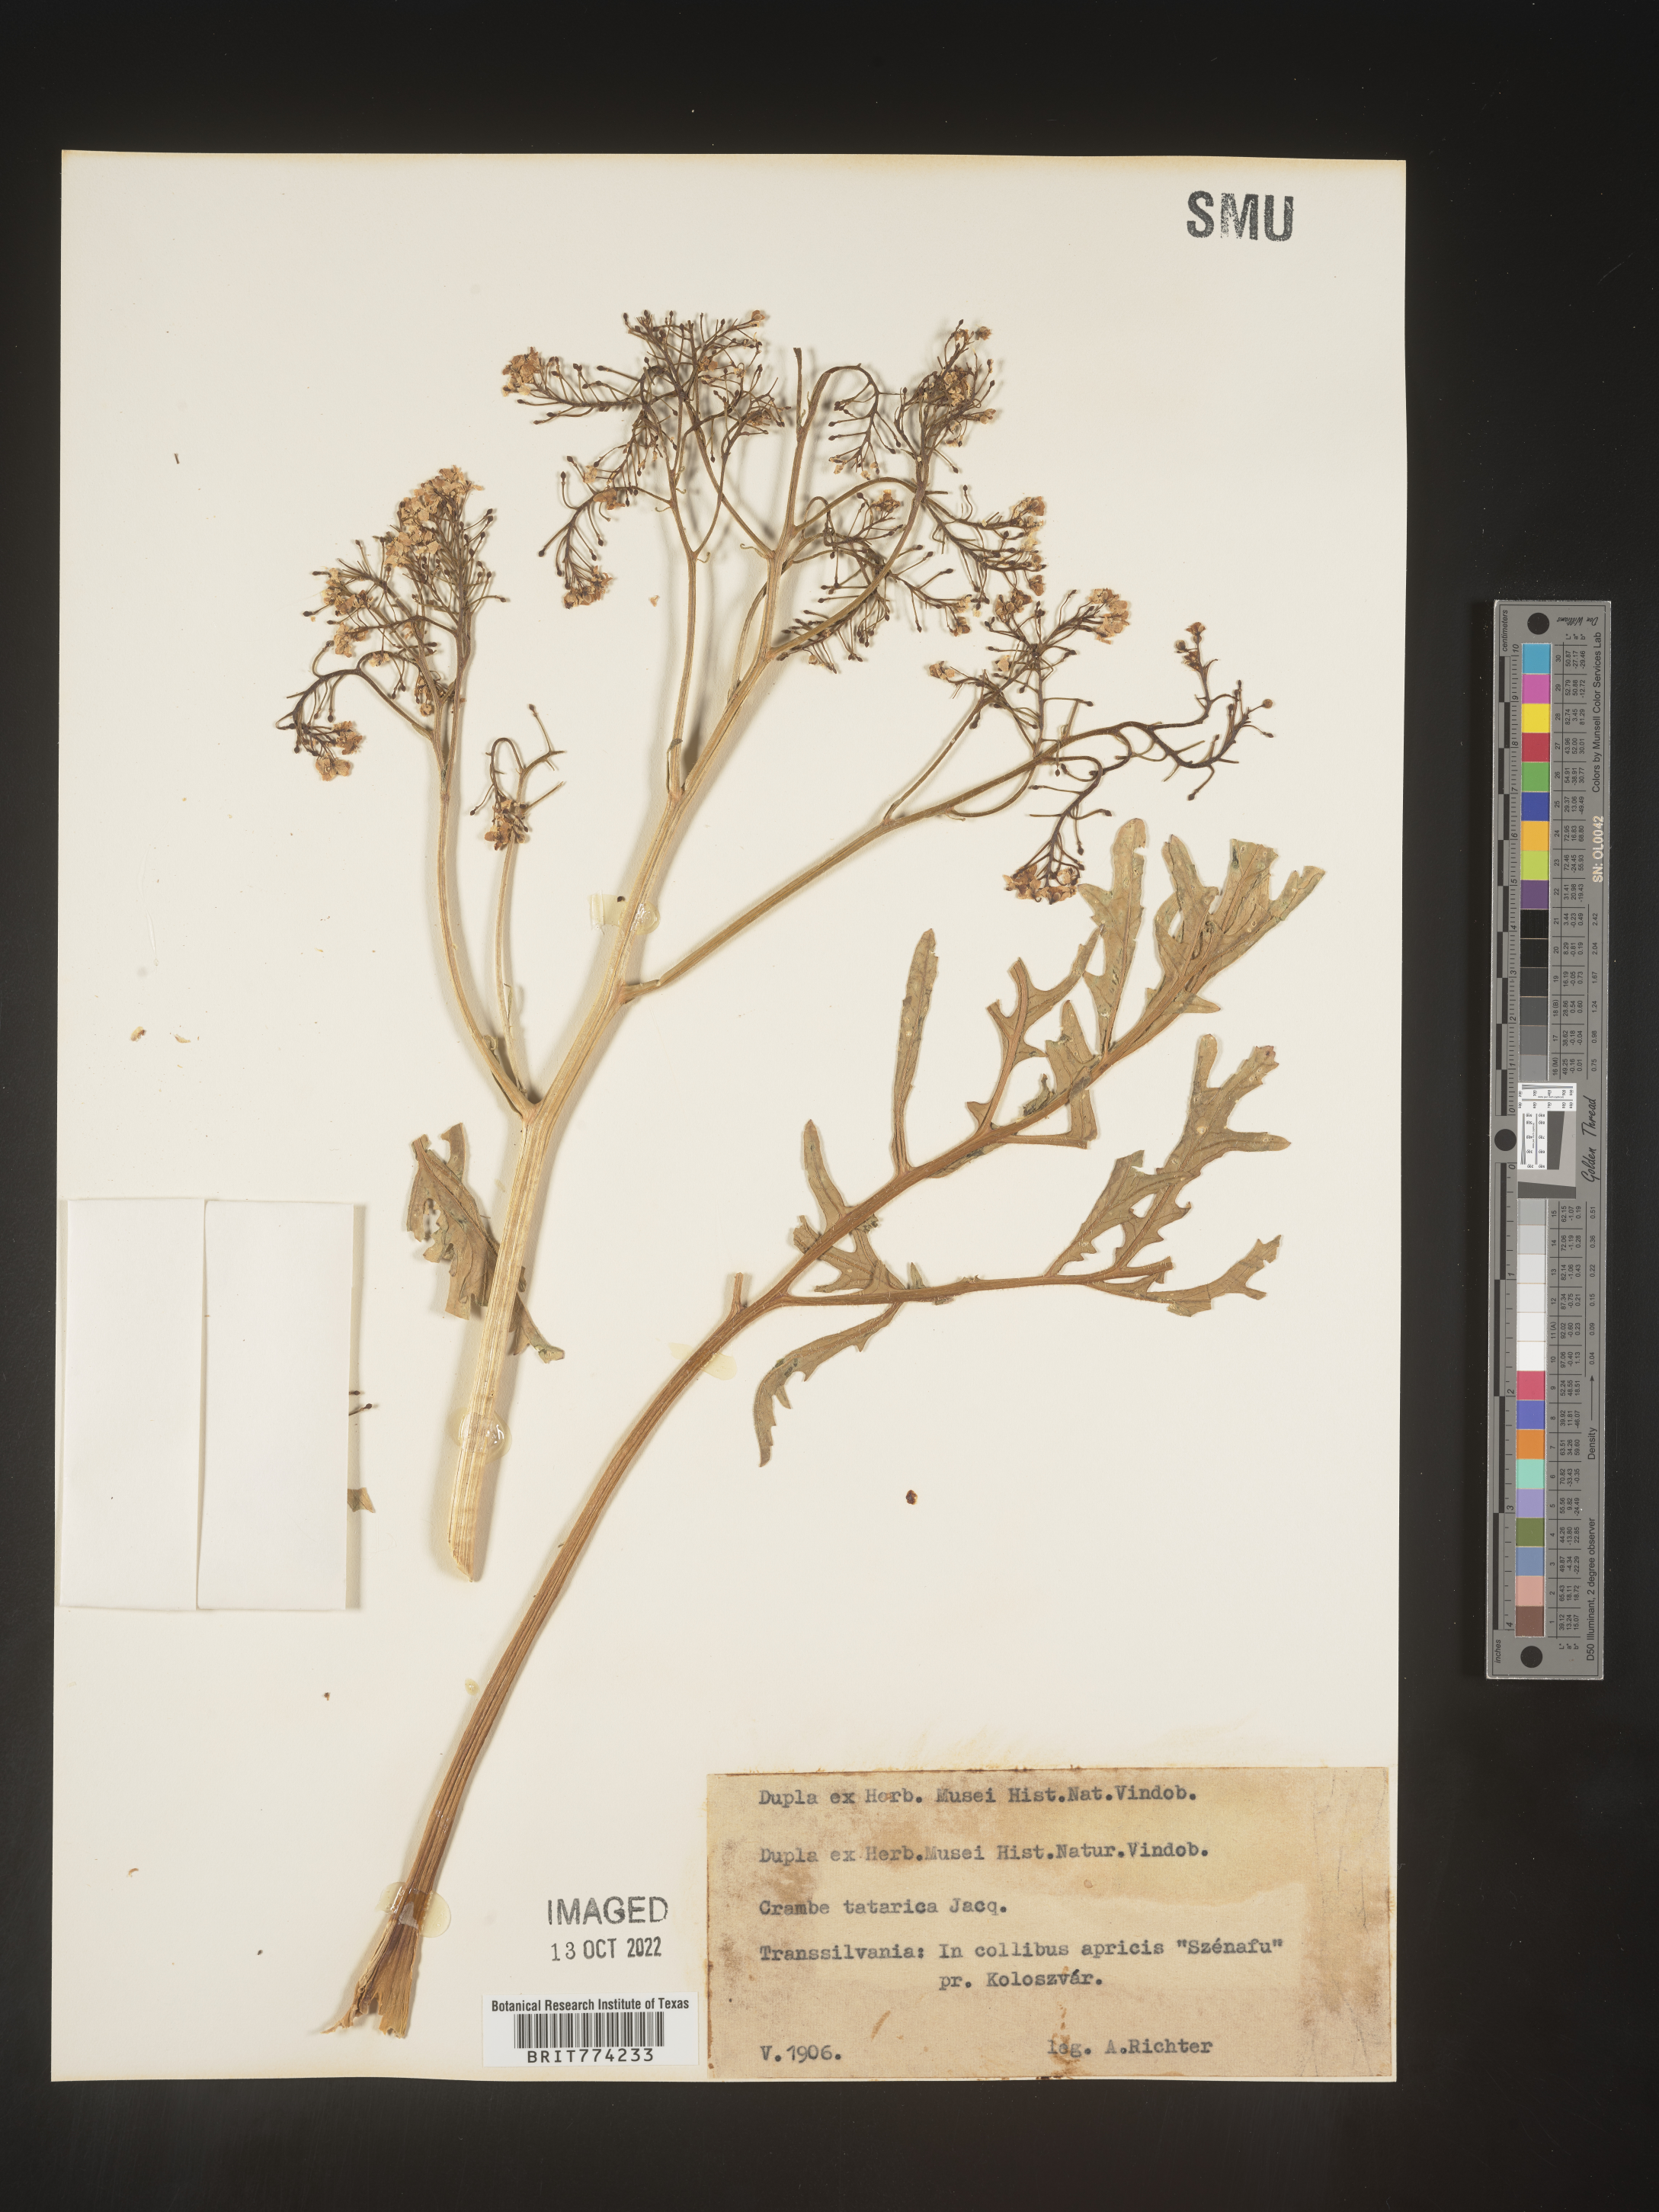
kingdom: Plantae
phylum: Tracheophyta
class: Magnoliopsida
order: Brassicales
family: Brassicaceae
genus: Crambe
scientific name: Crambe
